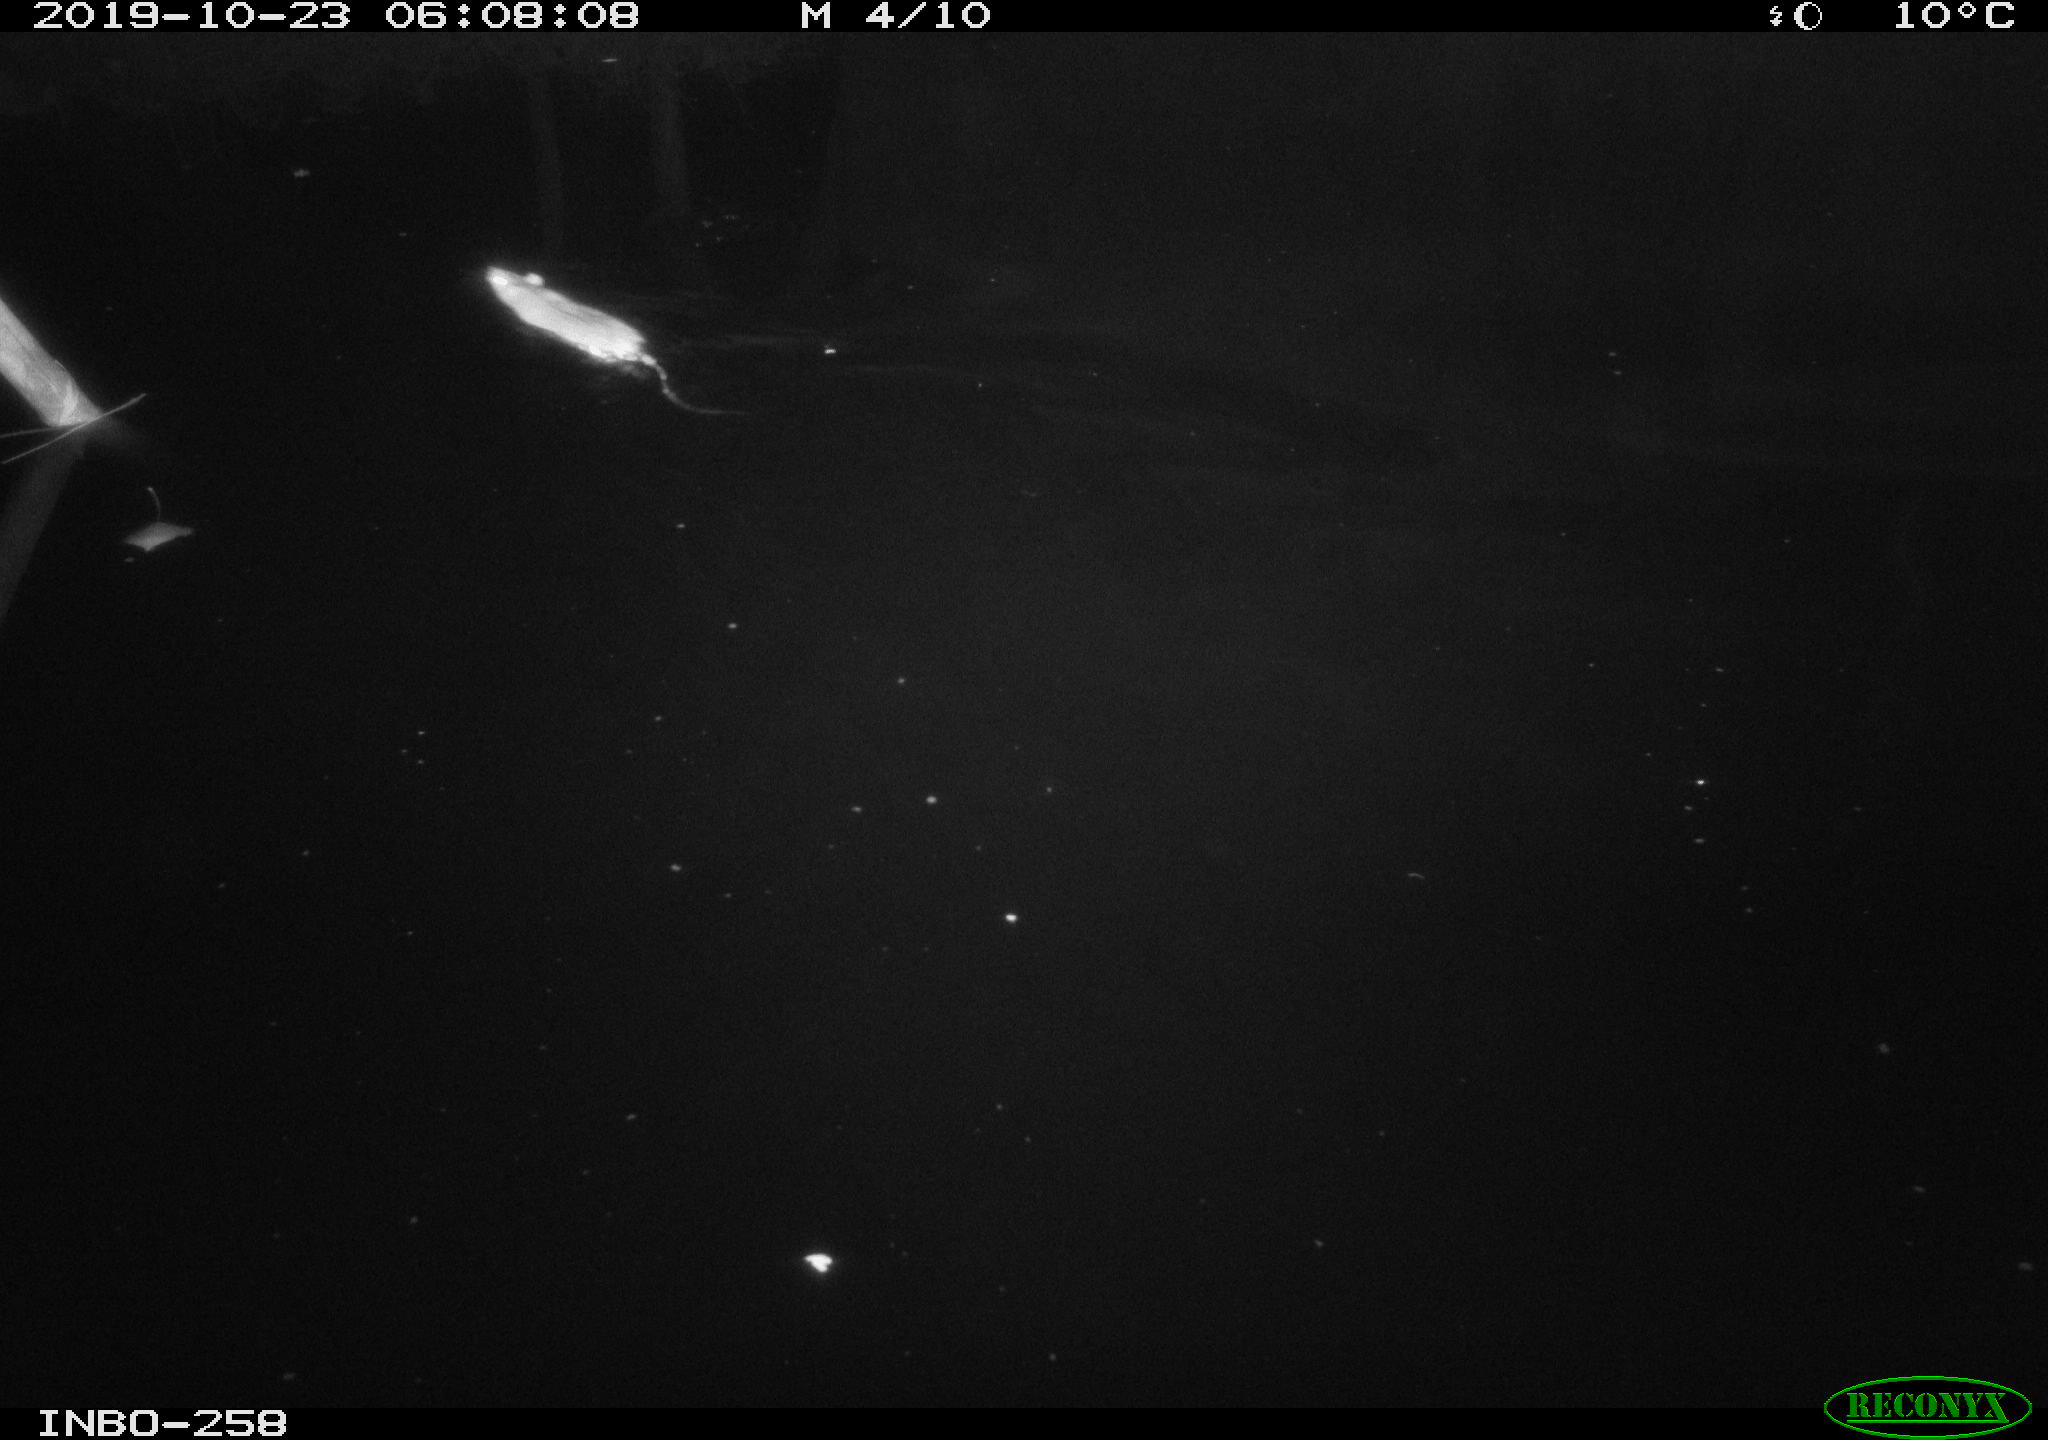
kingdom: Animalia
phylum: Chordata
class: Mammalia
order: Rodentia
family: Muridae
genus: Rattus
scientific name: Rattus norvegicus
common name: Brown rat
